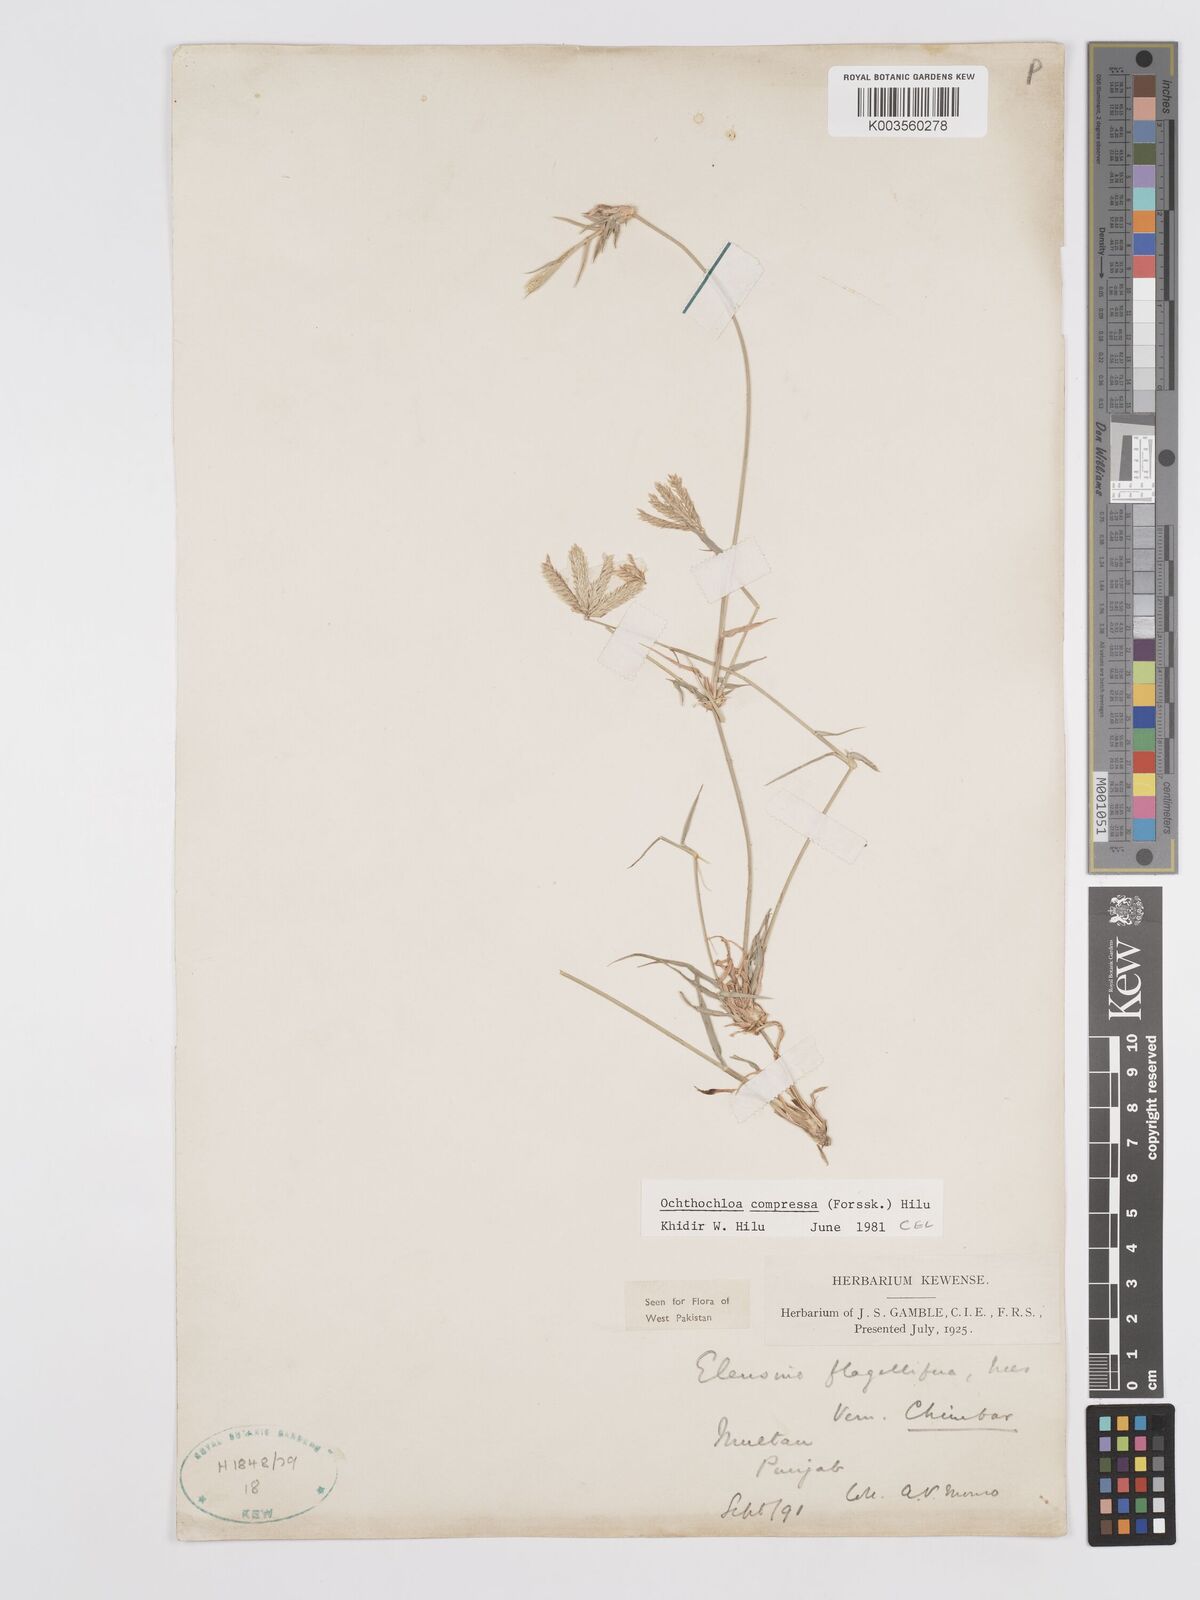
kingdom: Plantae
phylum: Tracheophyta
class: Liliopsida
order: Poales
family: Poaceae
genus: Chloris
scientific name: Chloris flagellifera
